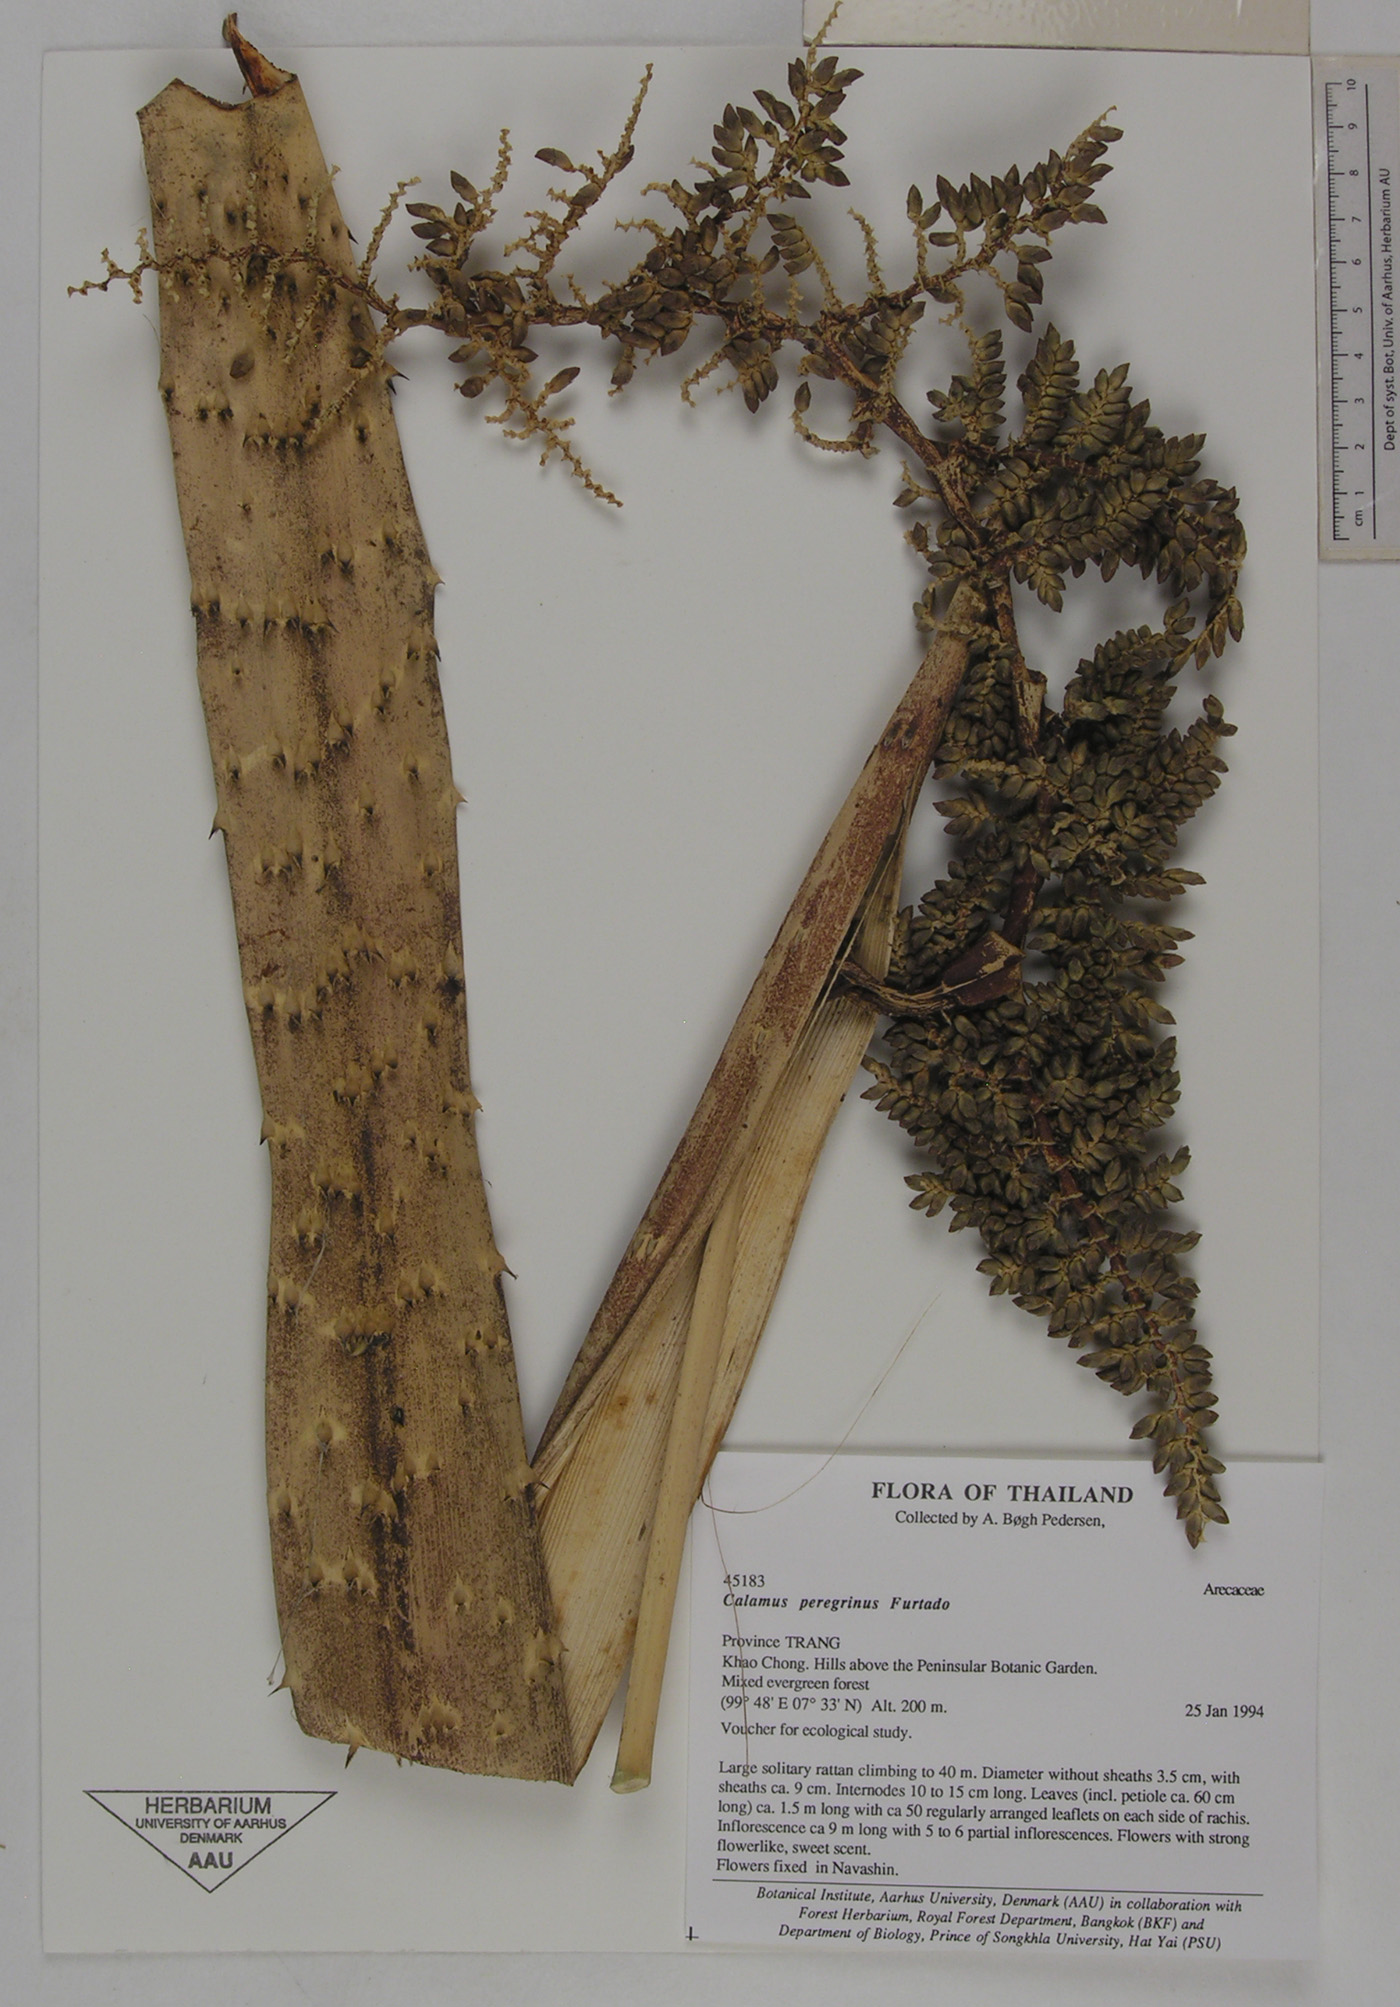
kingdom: Plantae
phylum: Tracheophyta
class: Liliopsida
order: Arecales
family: Arecaceae
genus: Calamus
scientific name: Calamus peregrinus
